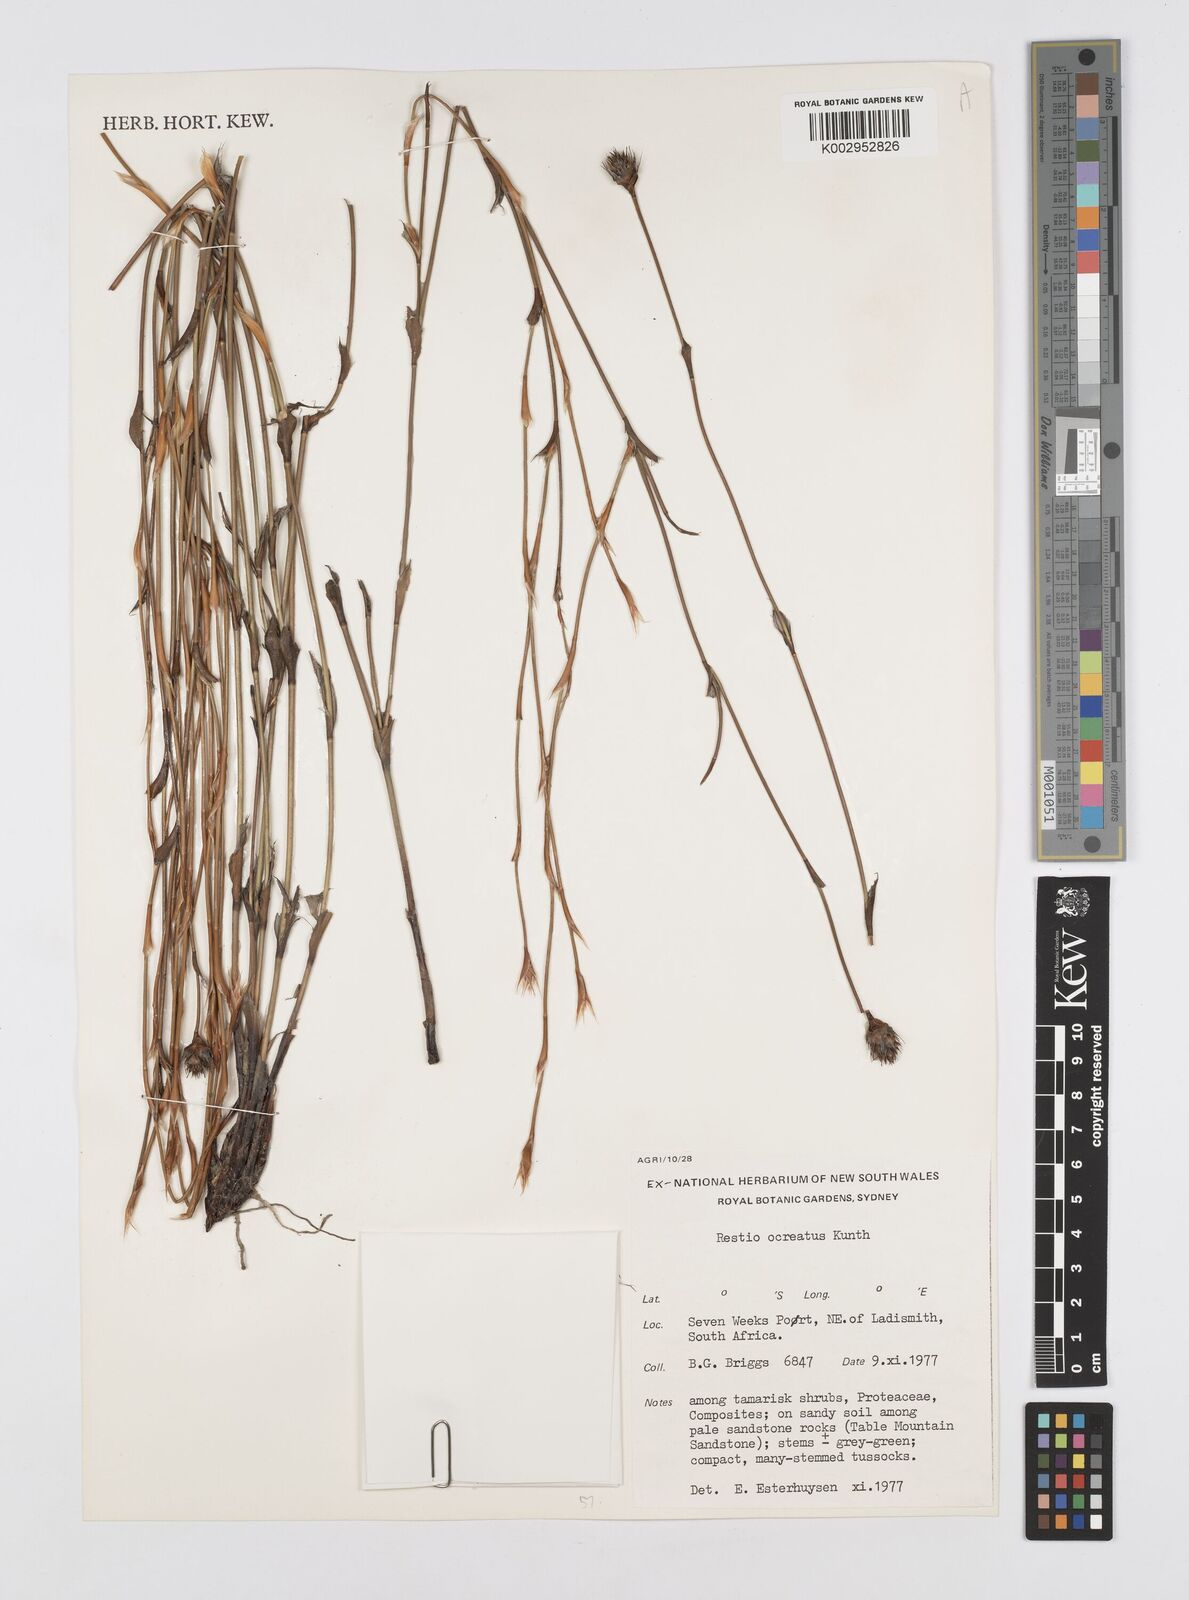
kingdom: Plantae
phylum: Tracheophyta
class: Liliopsida
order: Poales
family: Restionaceae
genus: Restio
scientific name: Restio ocreatus
